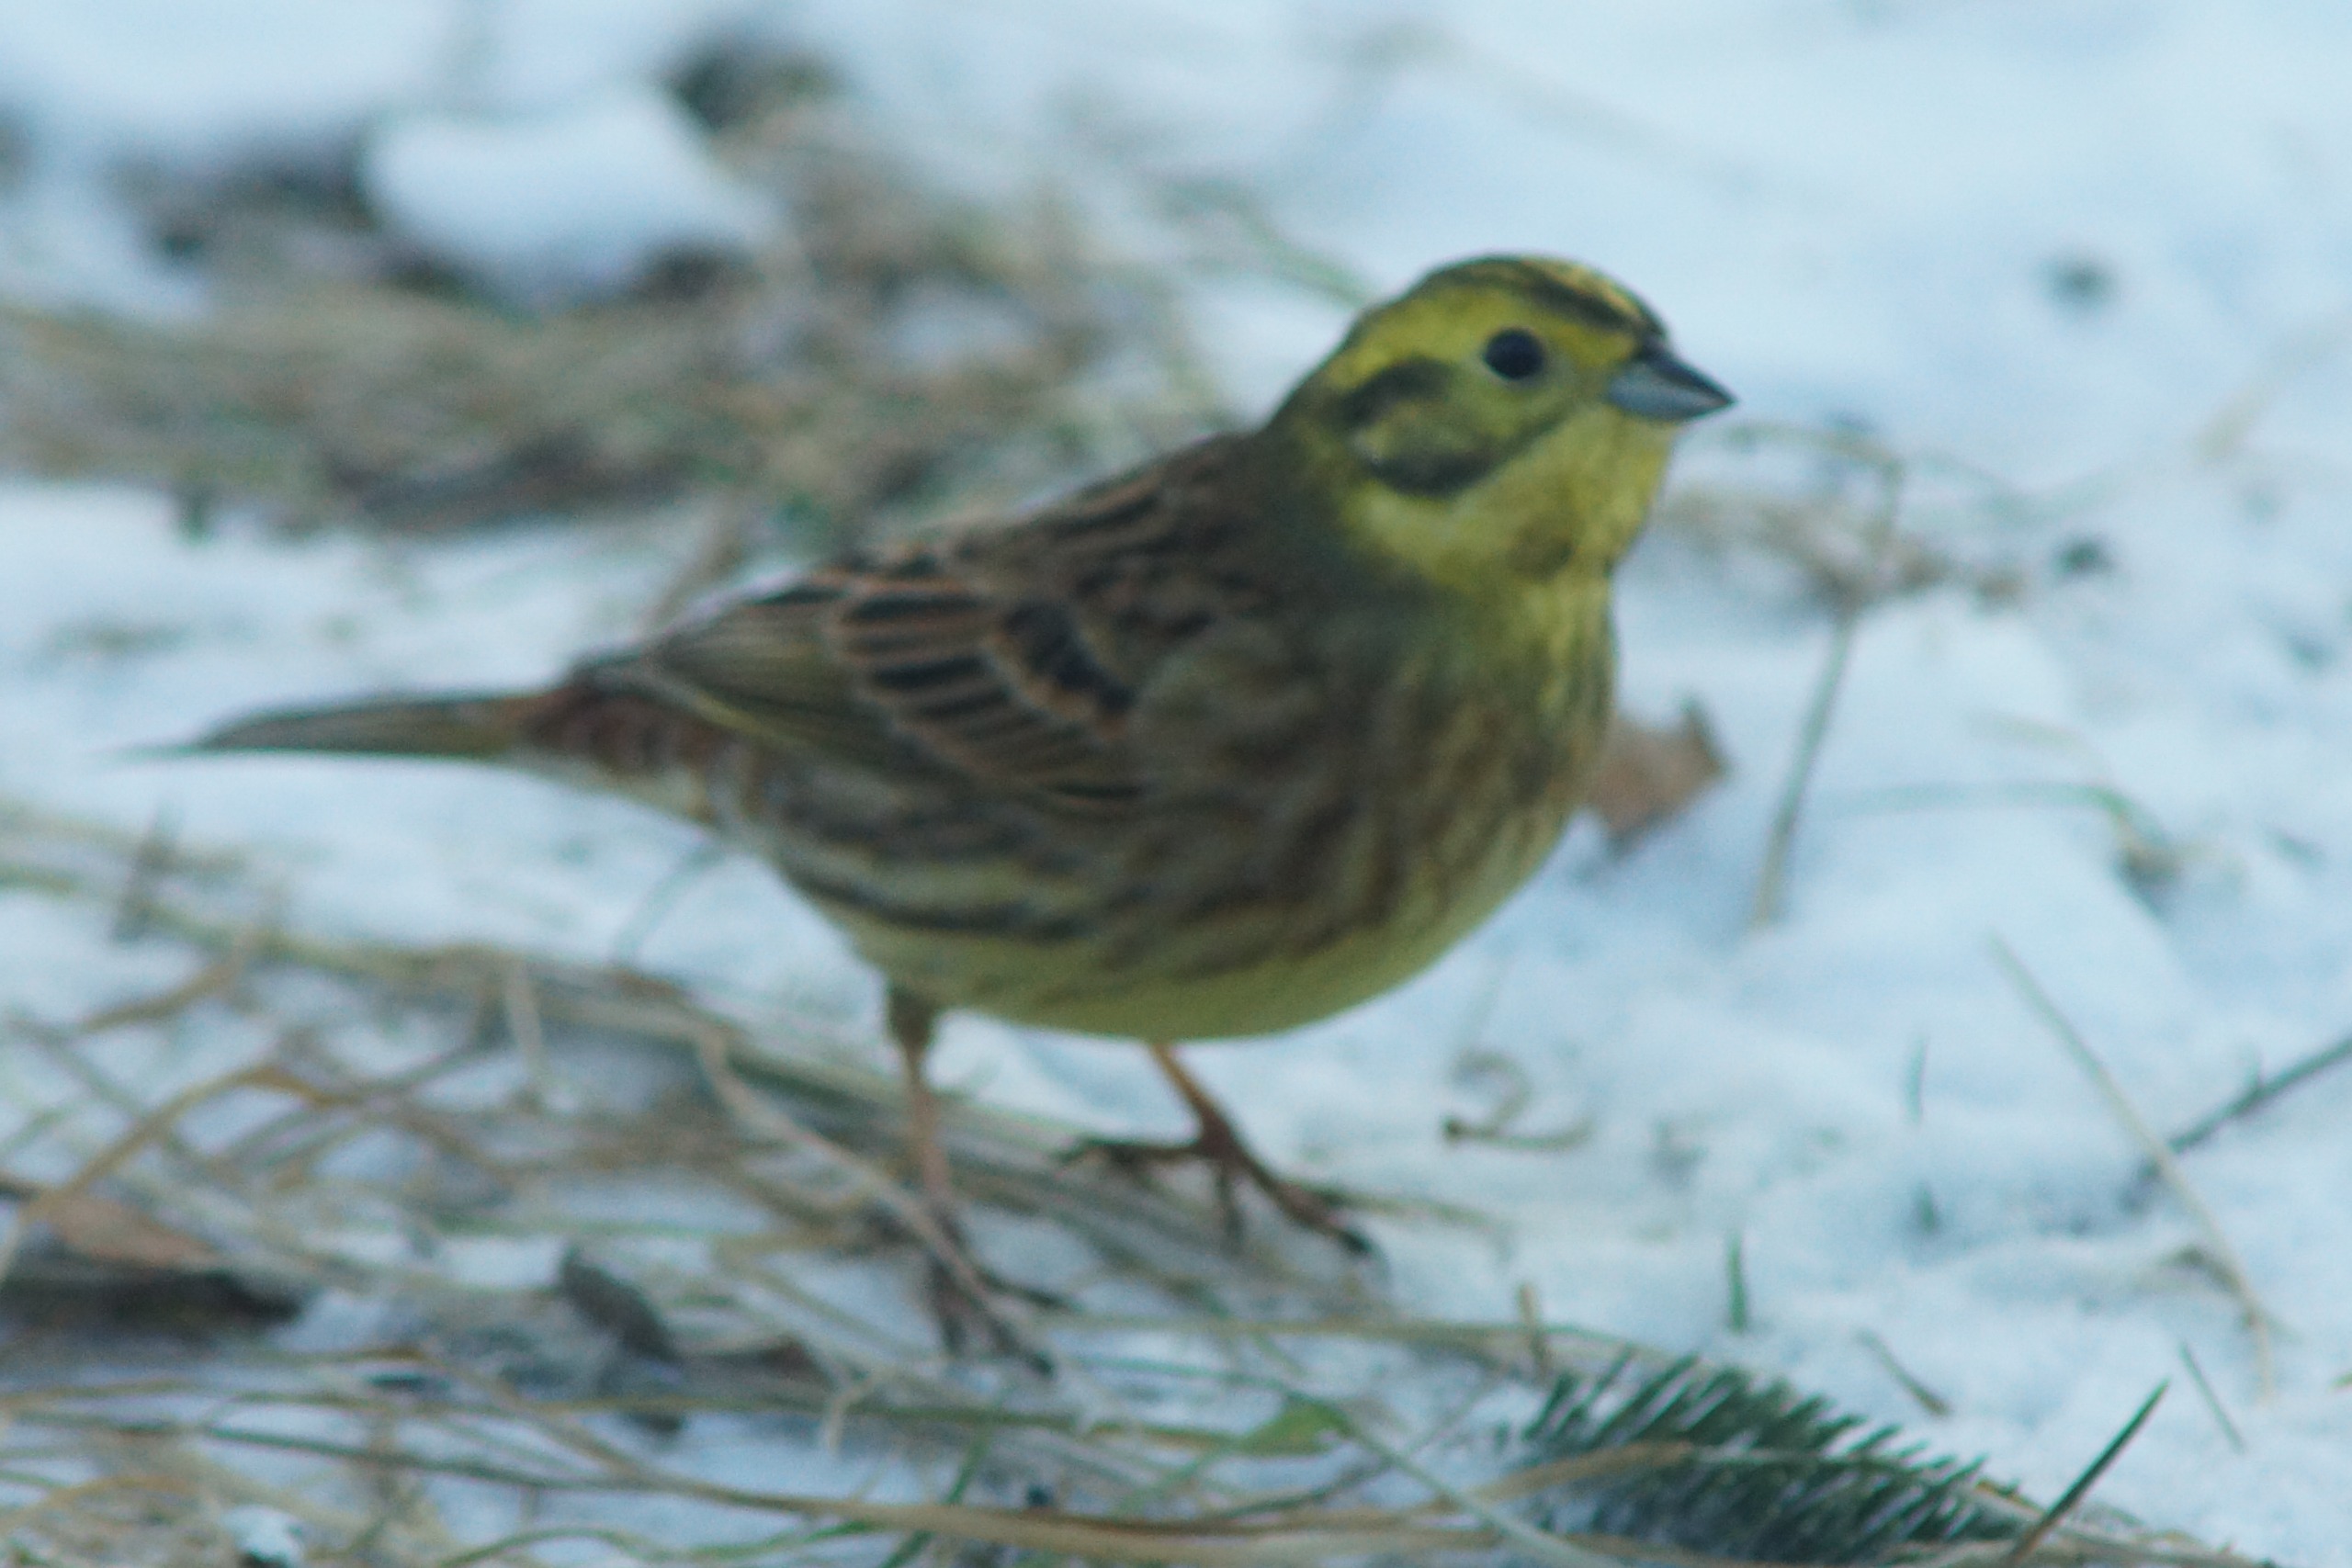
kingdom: Animalia
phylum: Chordata
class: Aves
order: Passeriformes
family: Emberizidae
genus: Emberiza
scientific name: Emberiza citrinella
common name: Gulspurv
